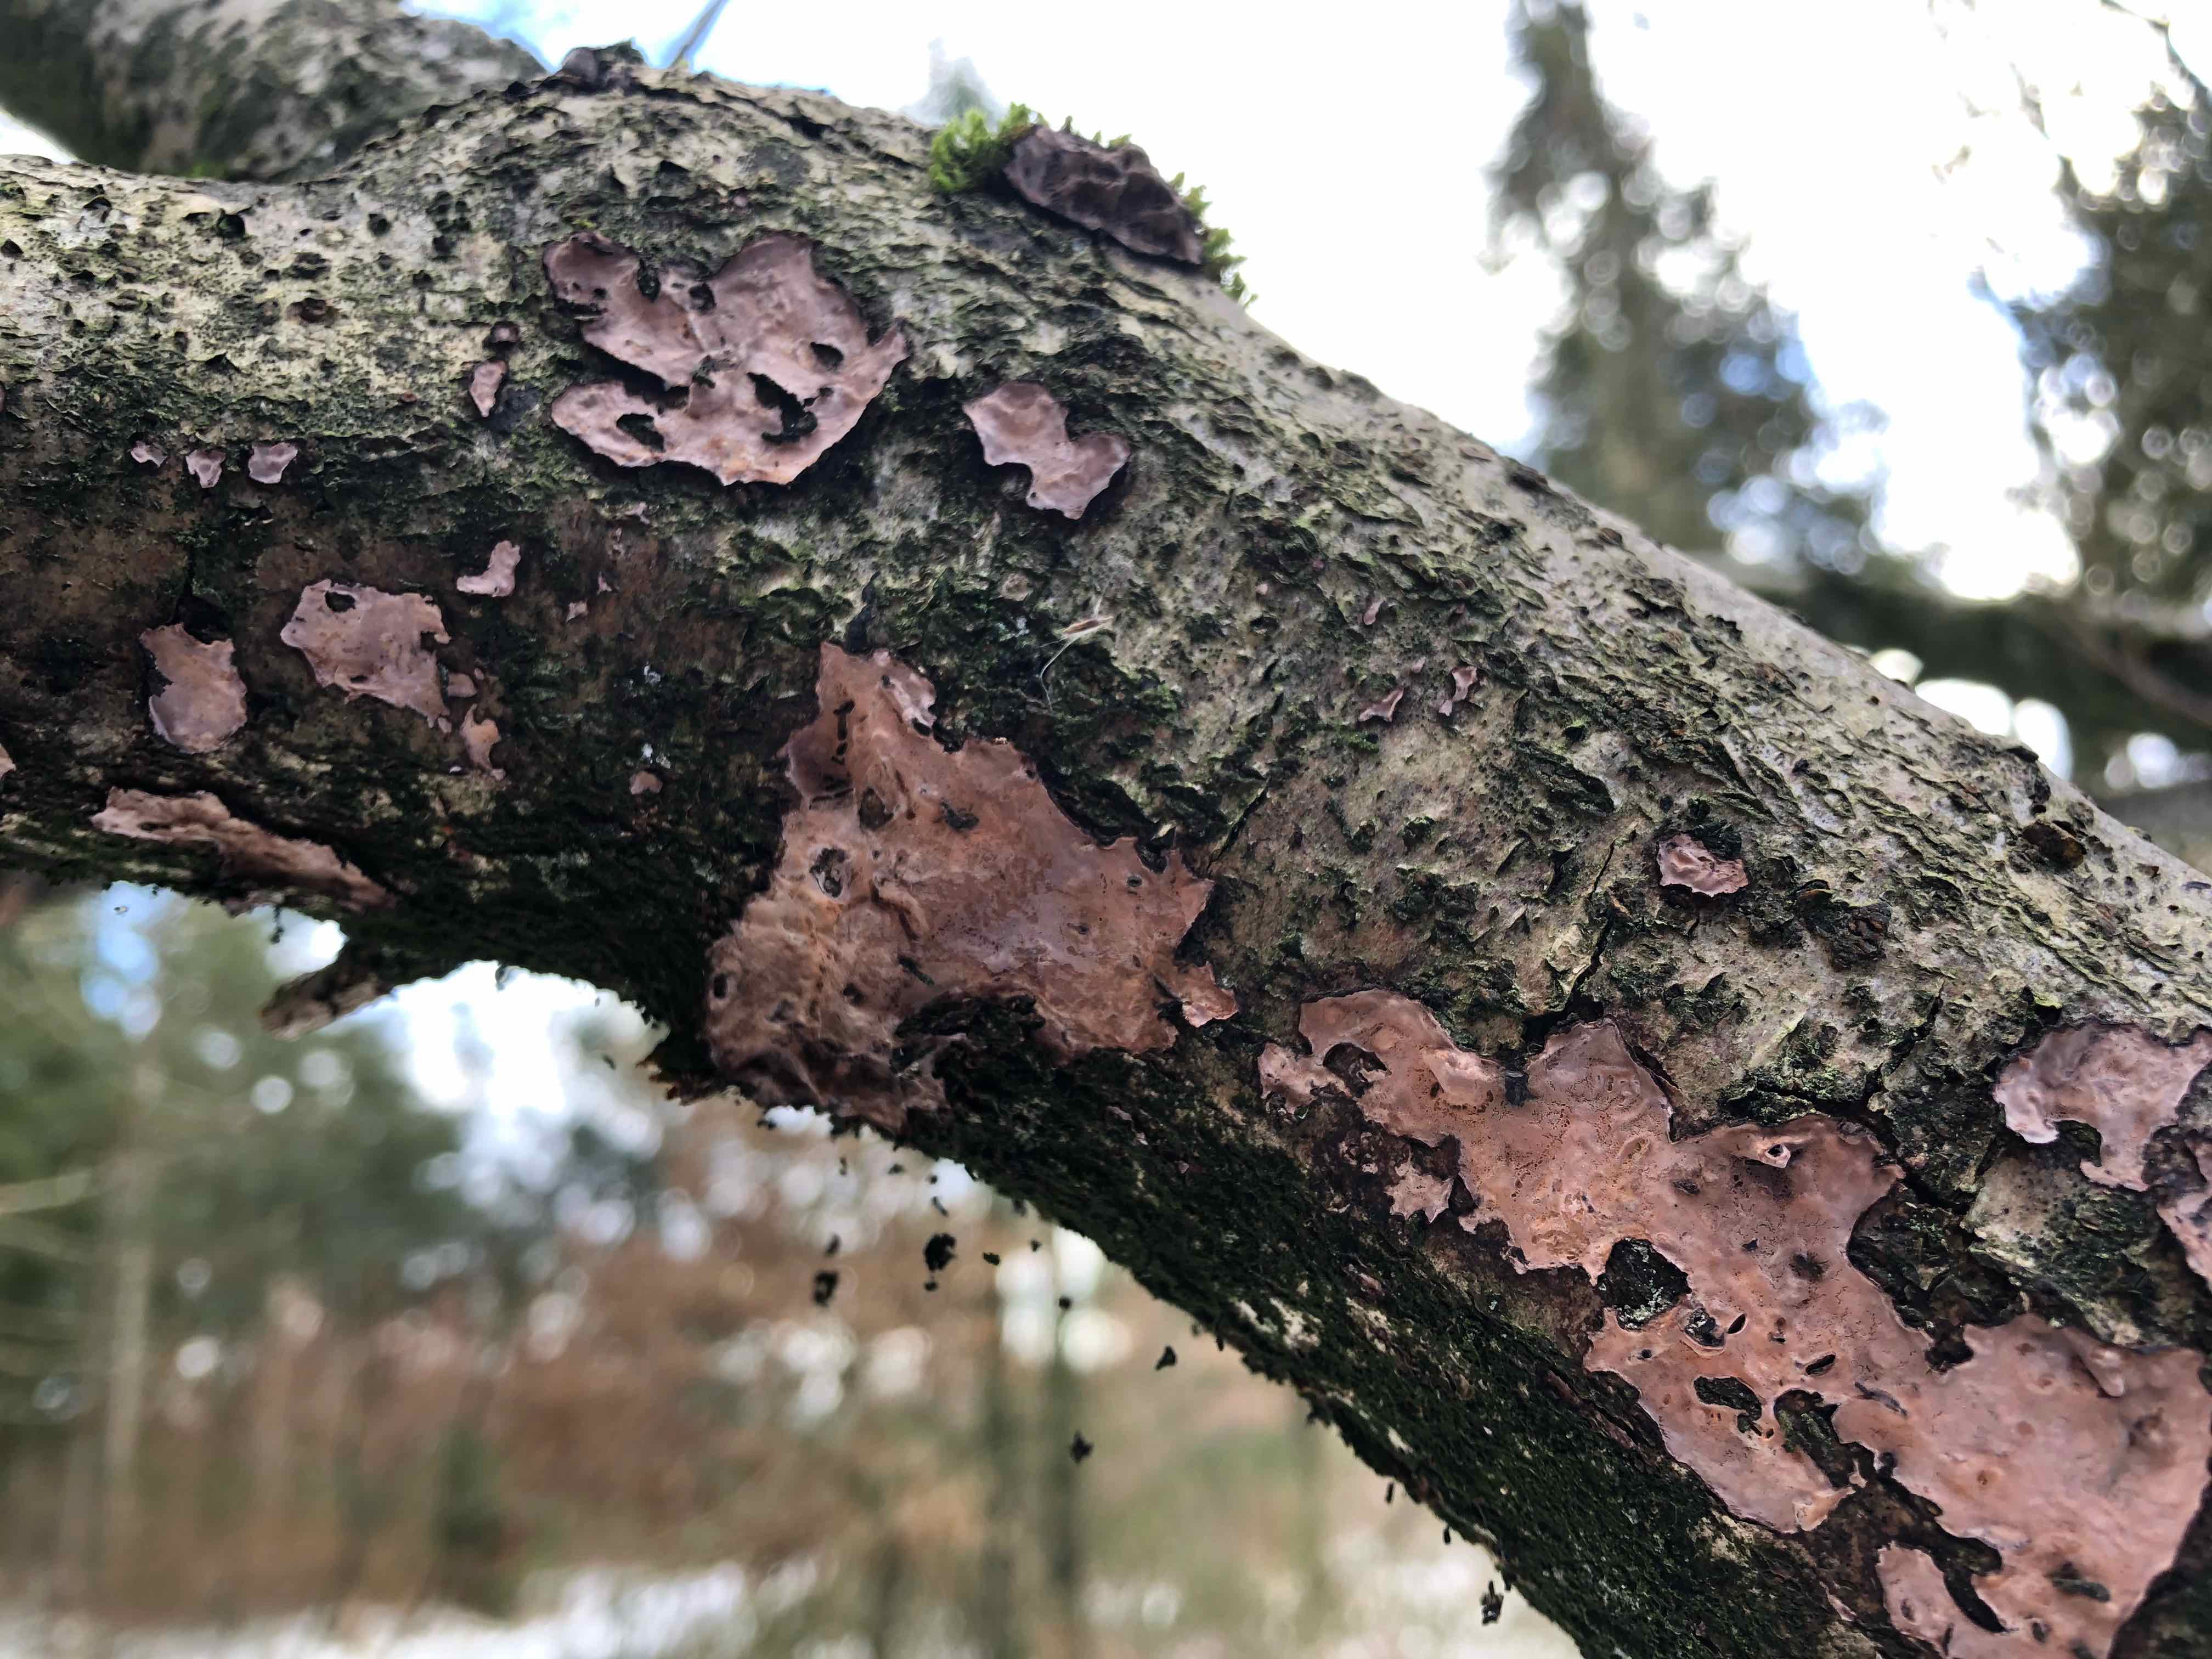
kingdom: Fungi
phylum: Basidiomycota
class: Agaricomycetes
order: Russulales
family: Peniophoraceae
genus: Peniophora
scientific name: Peniophora quercina
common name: ege-voksskind
